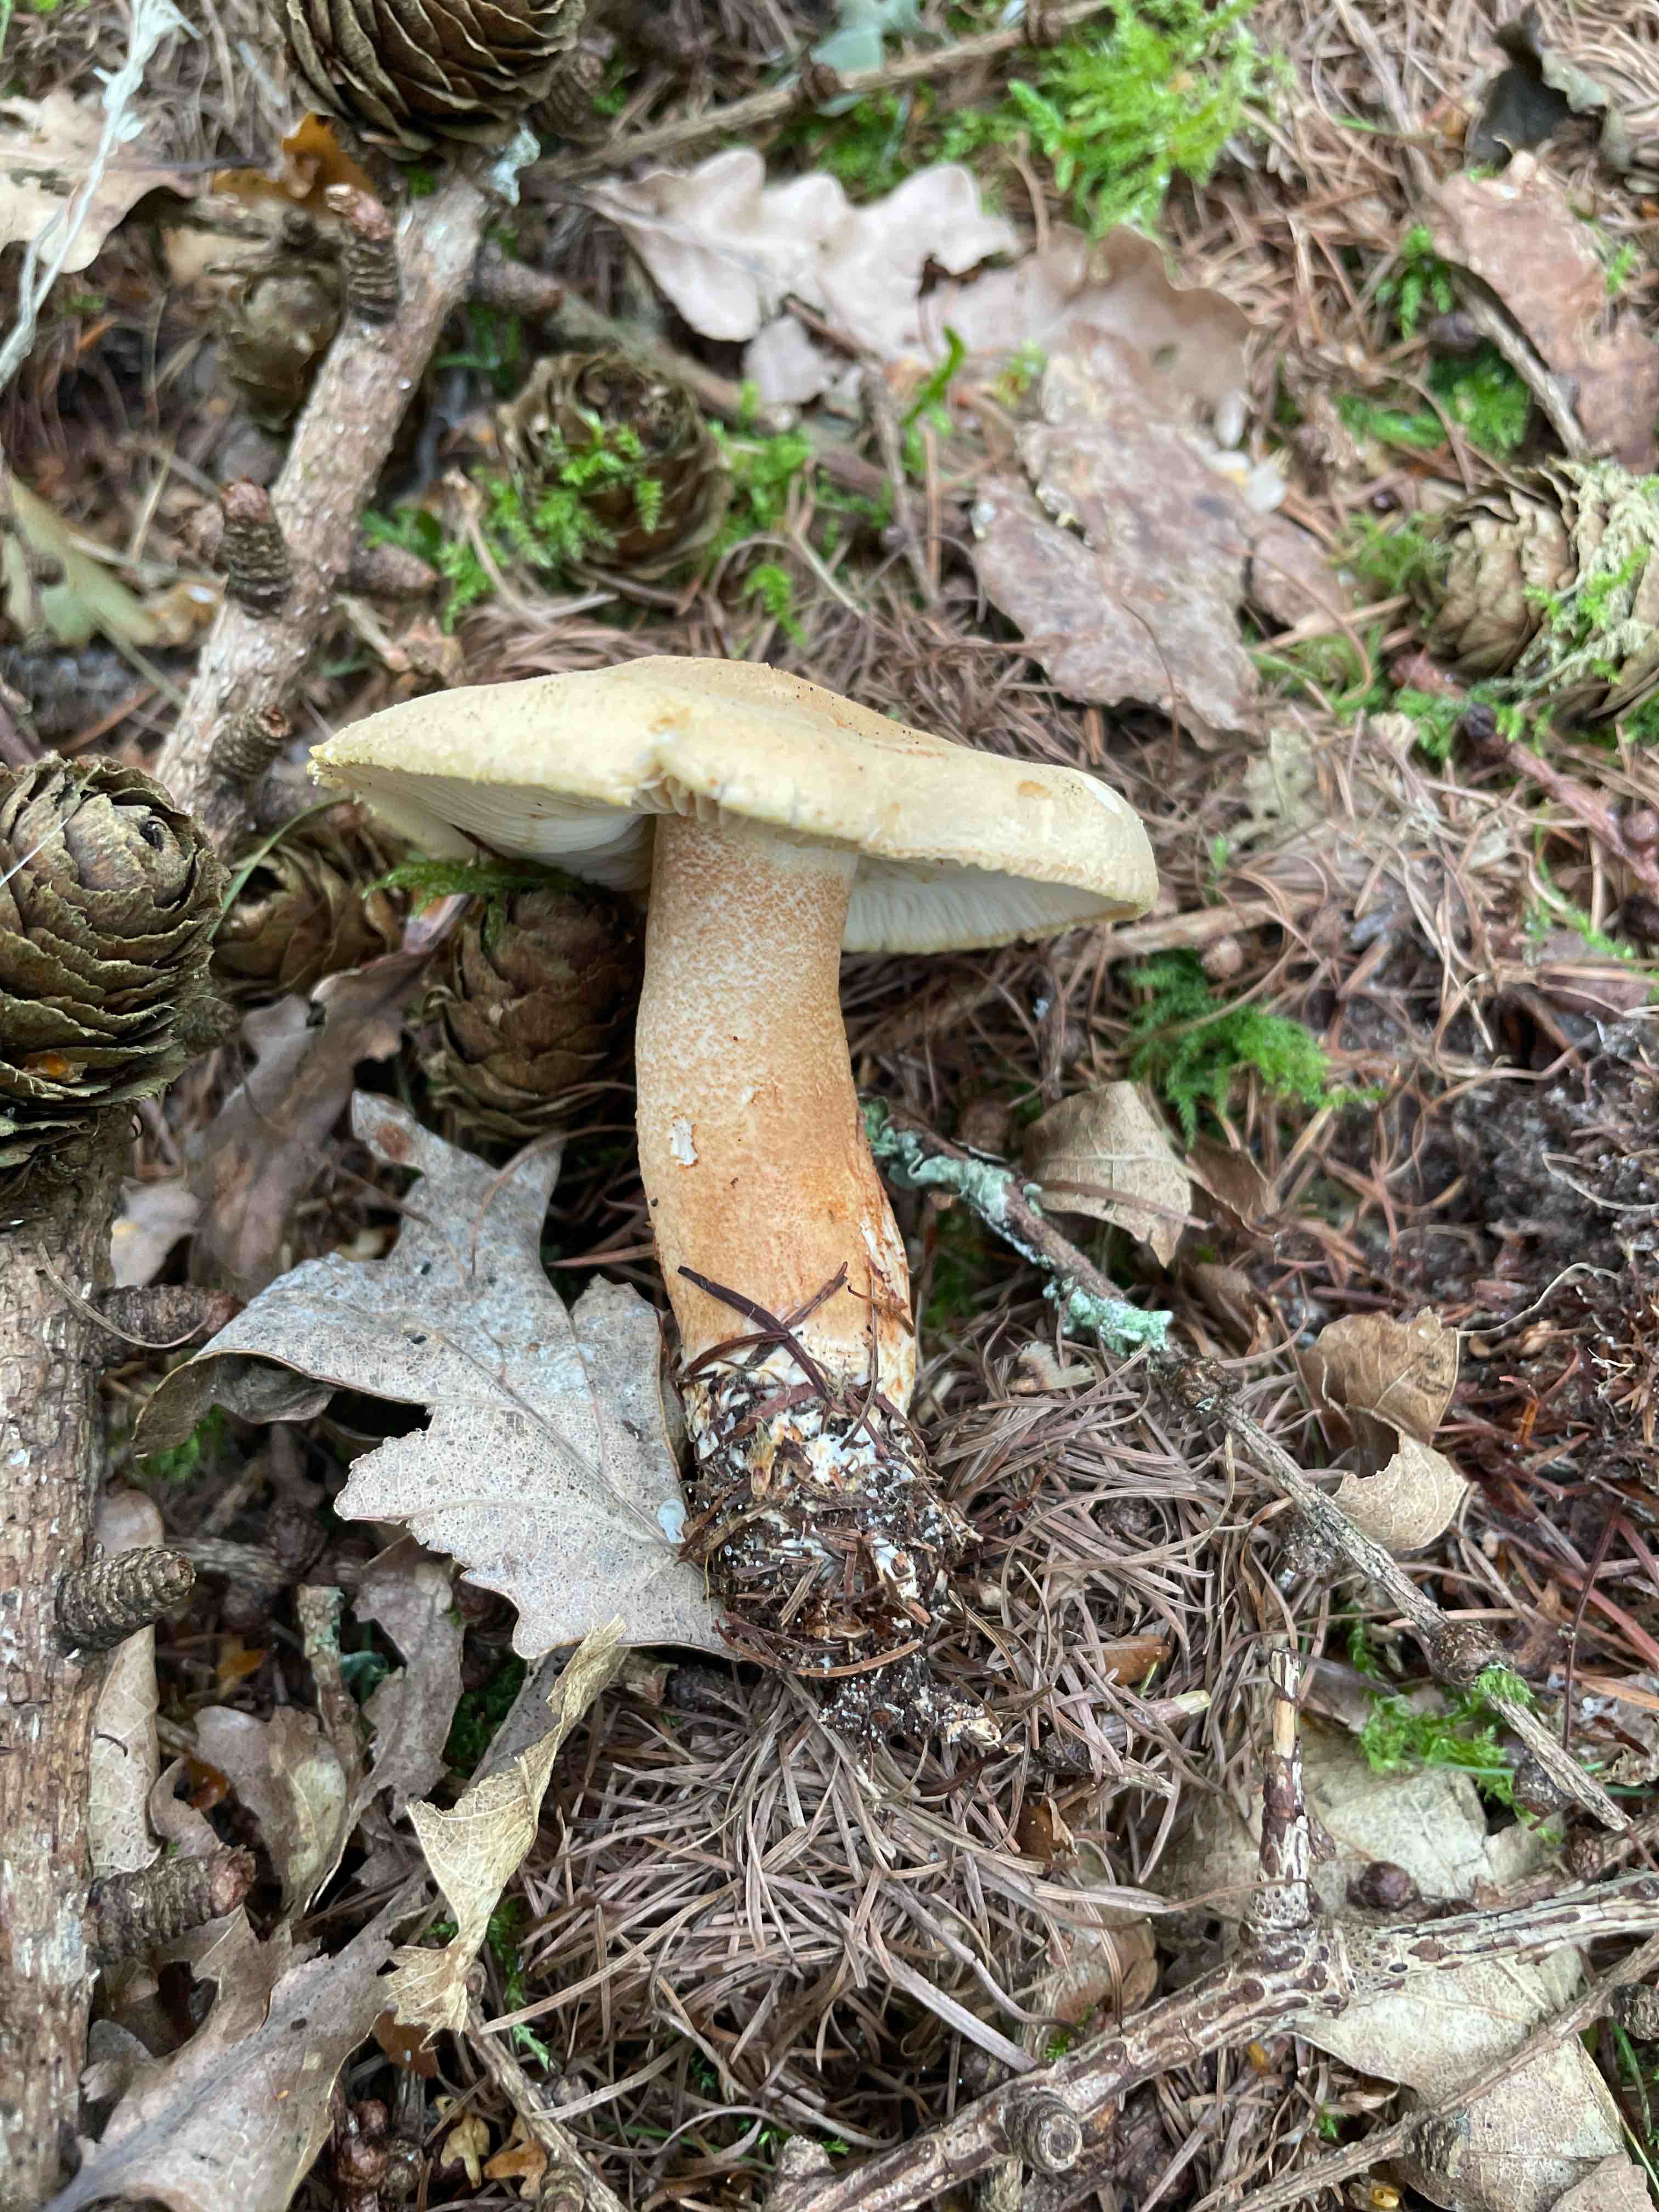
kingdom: Fungi
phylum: Basidiomycota
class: Agaricomycetes
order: Agaricales
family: Tricholomataceae
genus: Tricholoma
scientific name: Tricholoma psammopus
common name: grynstokket ridderhat
